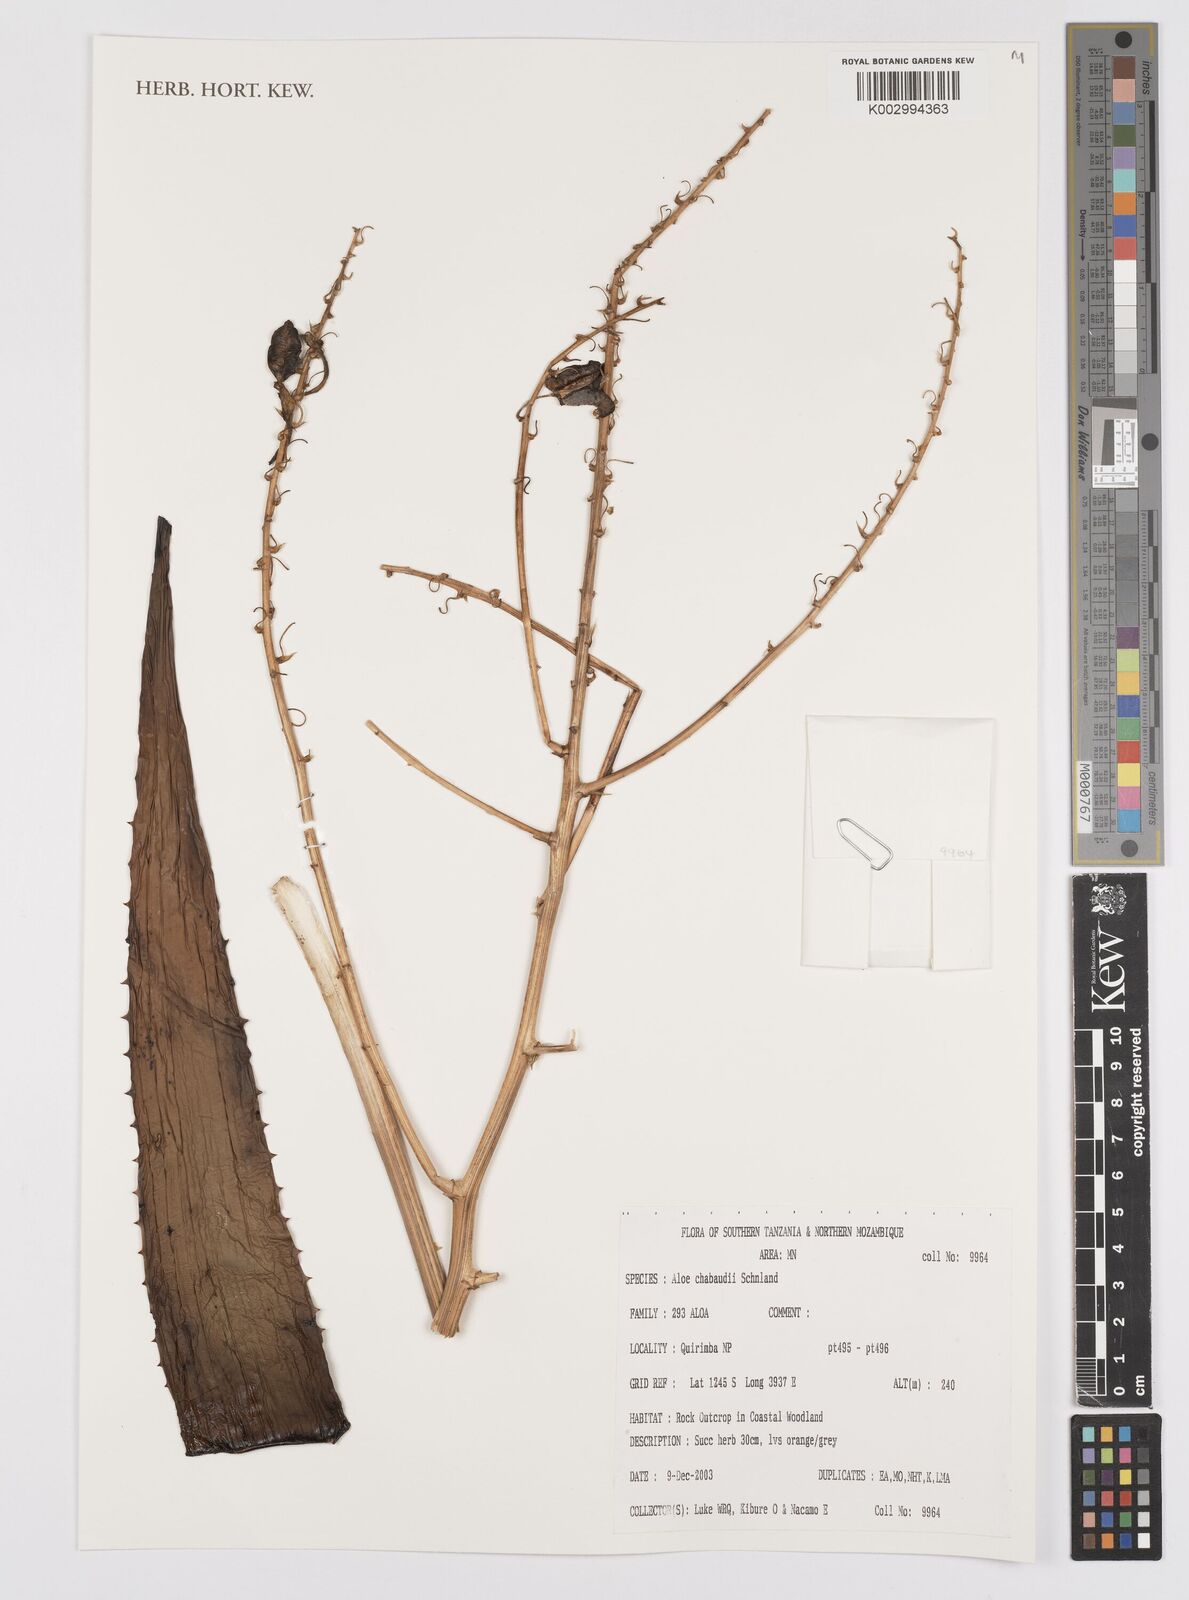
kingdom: Plantae
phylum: Tracheophyta
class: Liliopsida
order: Asparagales
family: Asphodelaceae
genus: Aloe
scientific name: Aloe chabaudii
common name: Chabaud's aloe
